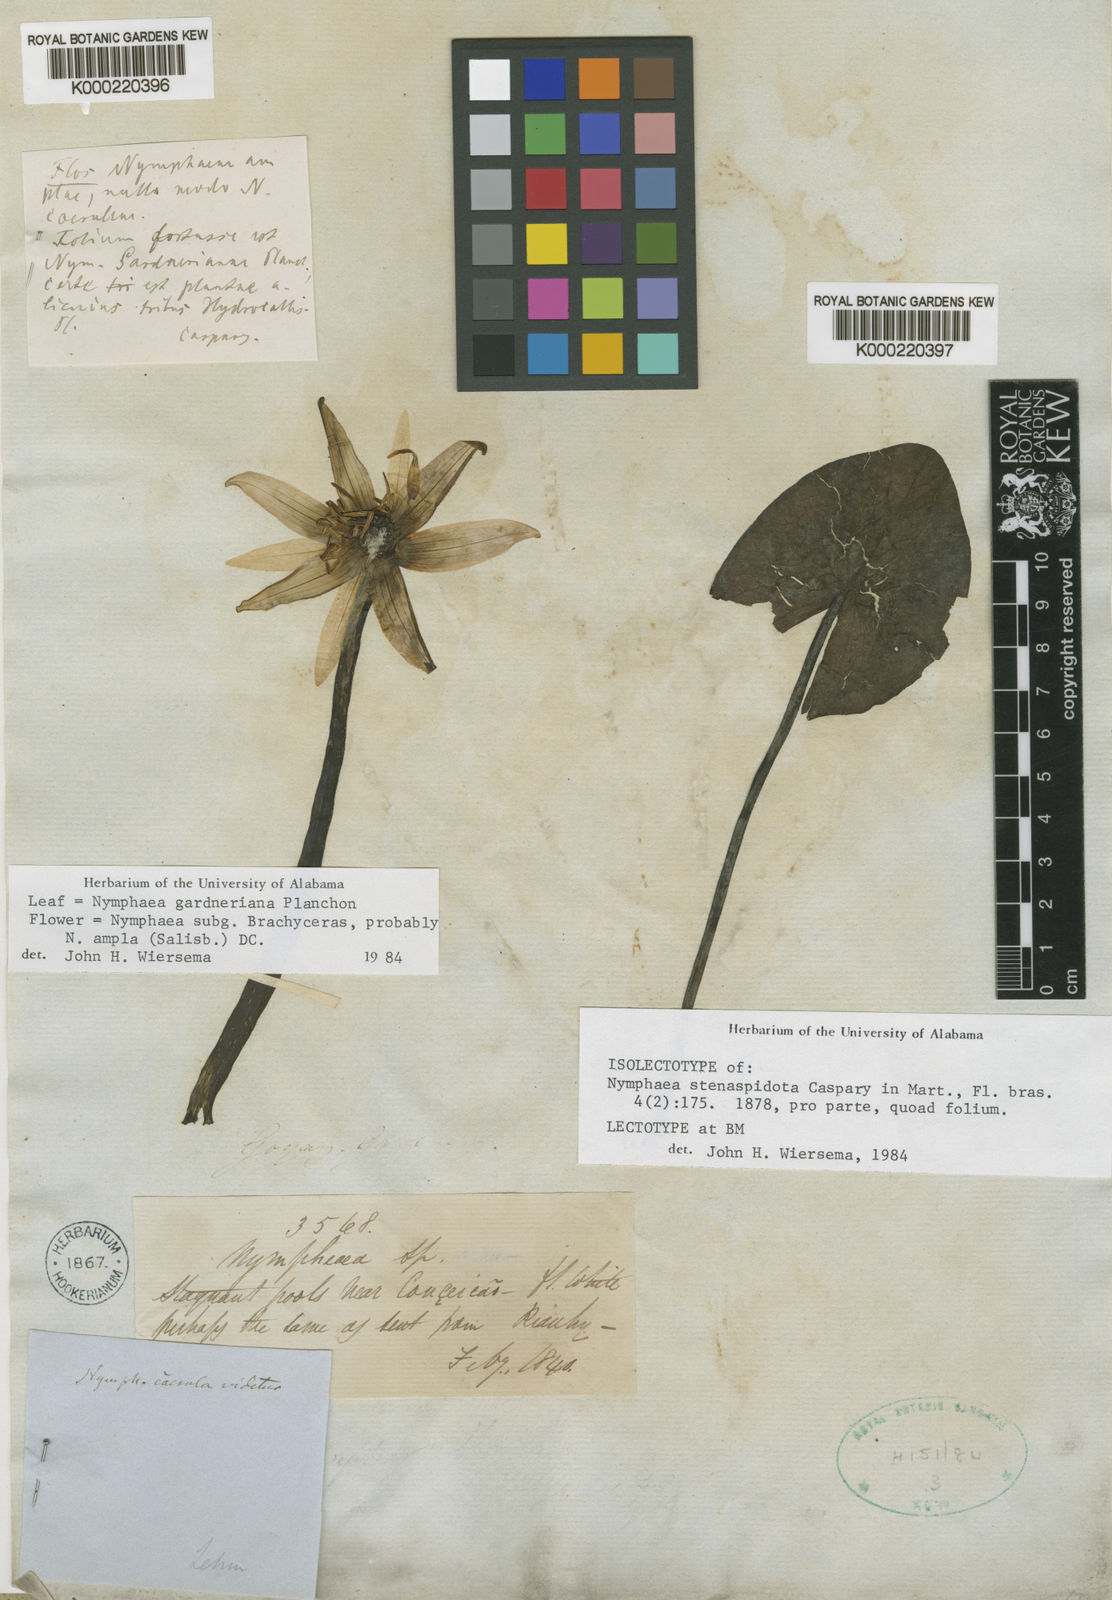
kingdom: Plantae
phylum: Tracheophyta
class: Magnoliopsida
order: Nymphaeales
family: Nymphaeaceae
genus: Nymphaea
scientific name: Nymphaea gardneriana
